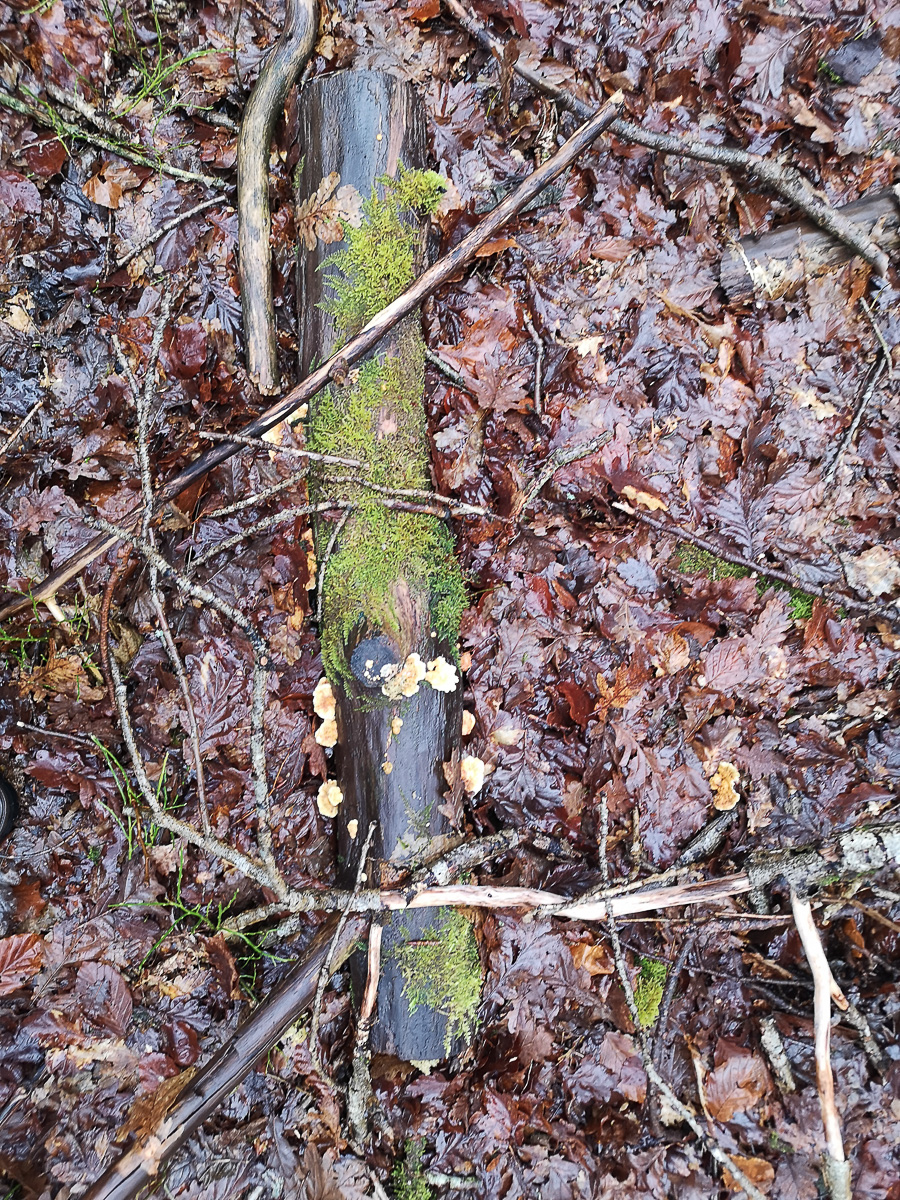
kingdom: Fungi
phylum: Basidiomycota
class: Agaricomycetes
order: Polyporales
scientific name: Polyporales
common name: poresvampordenen
